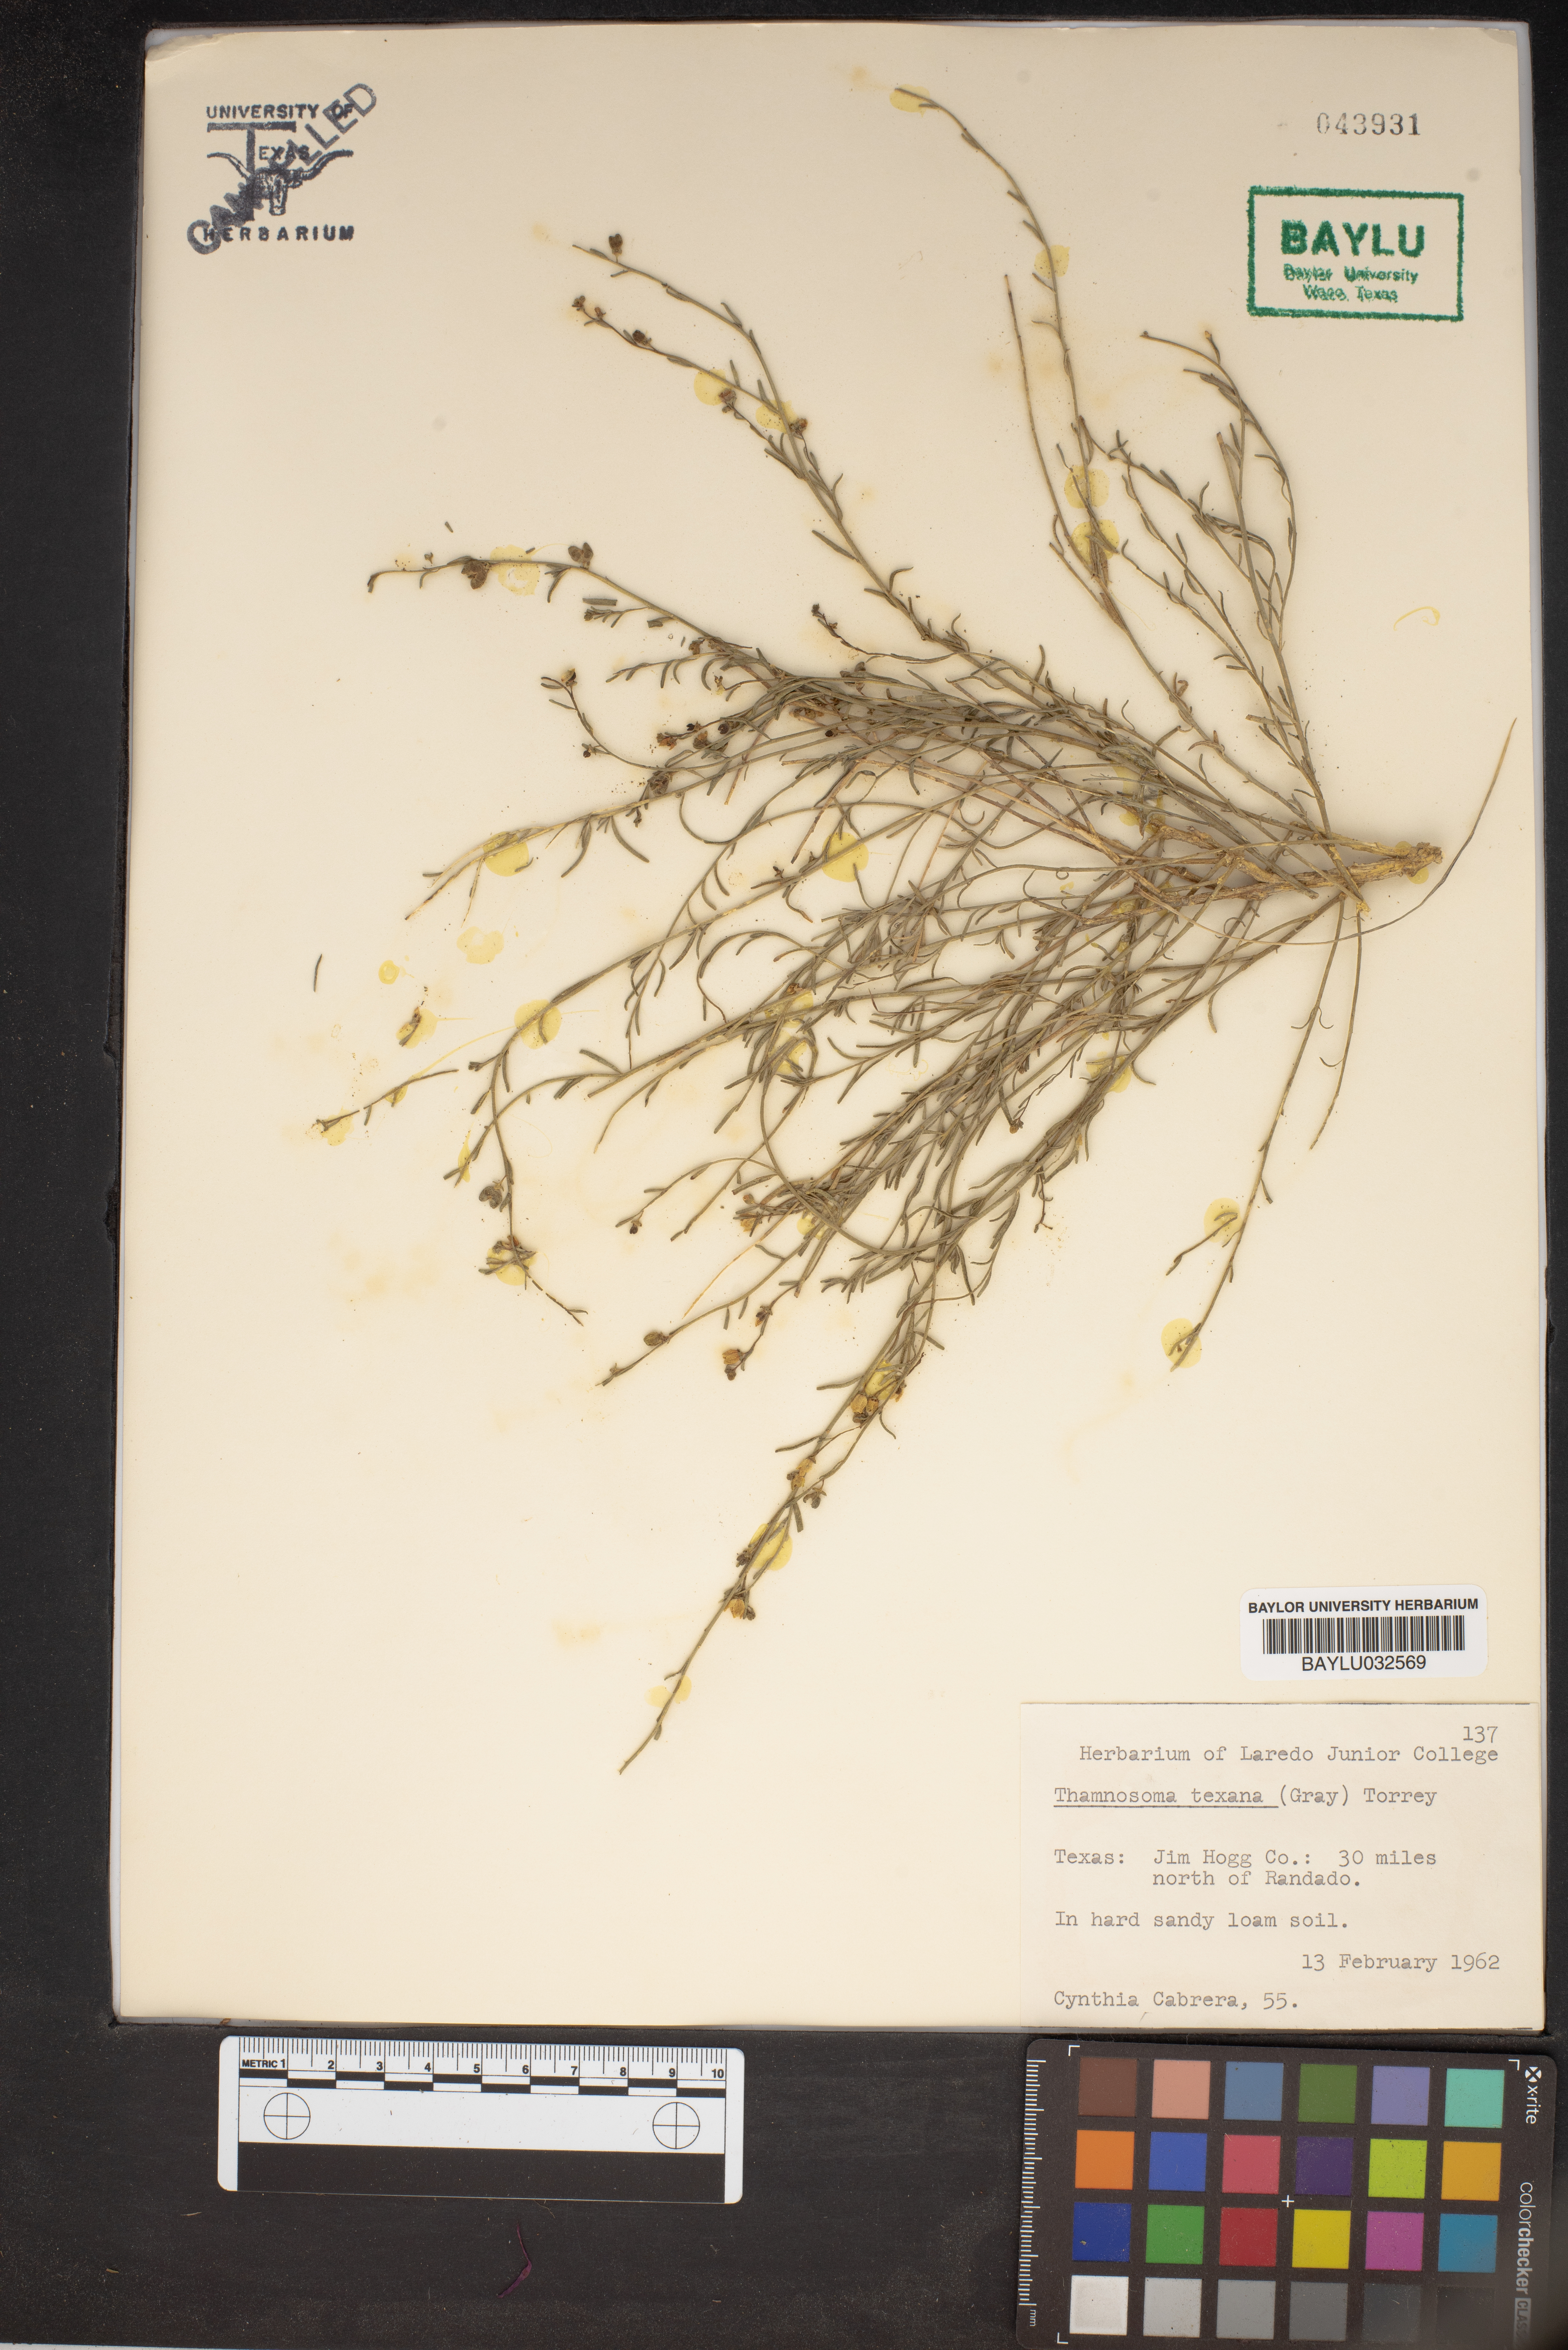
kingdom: Plantae
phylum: Tracheophyta
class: Magnoliopsida
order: Sapindales
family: Rutaceae
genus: Thamnosma
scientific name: Thamnosma texana
